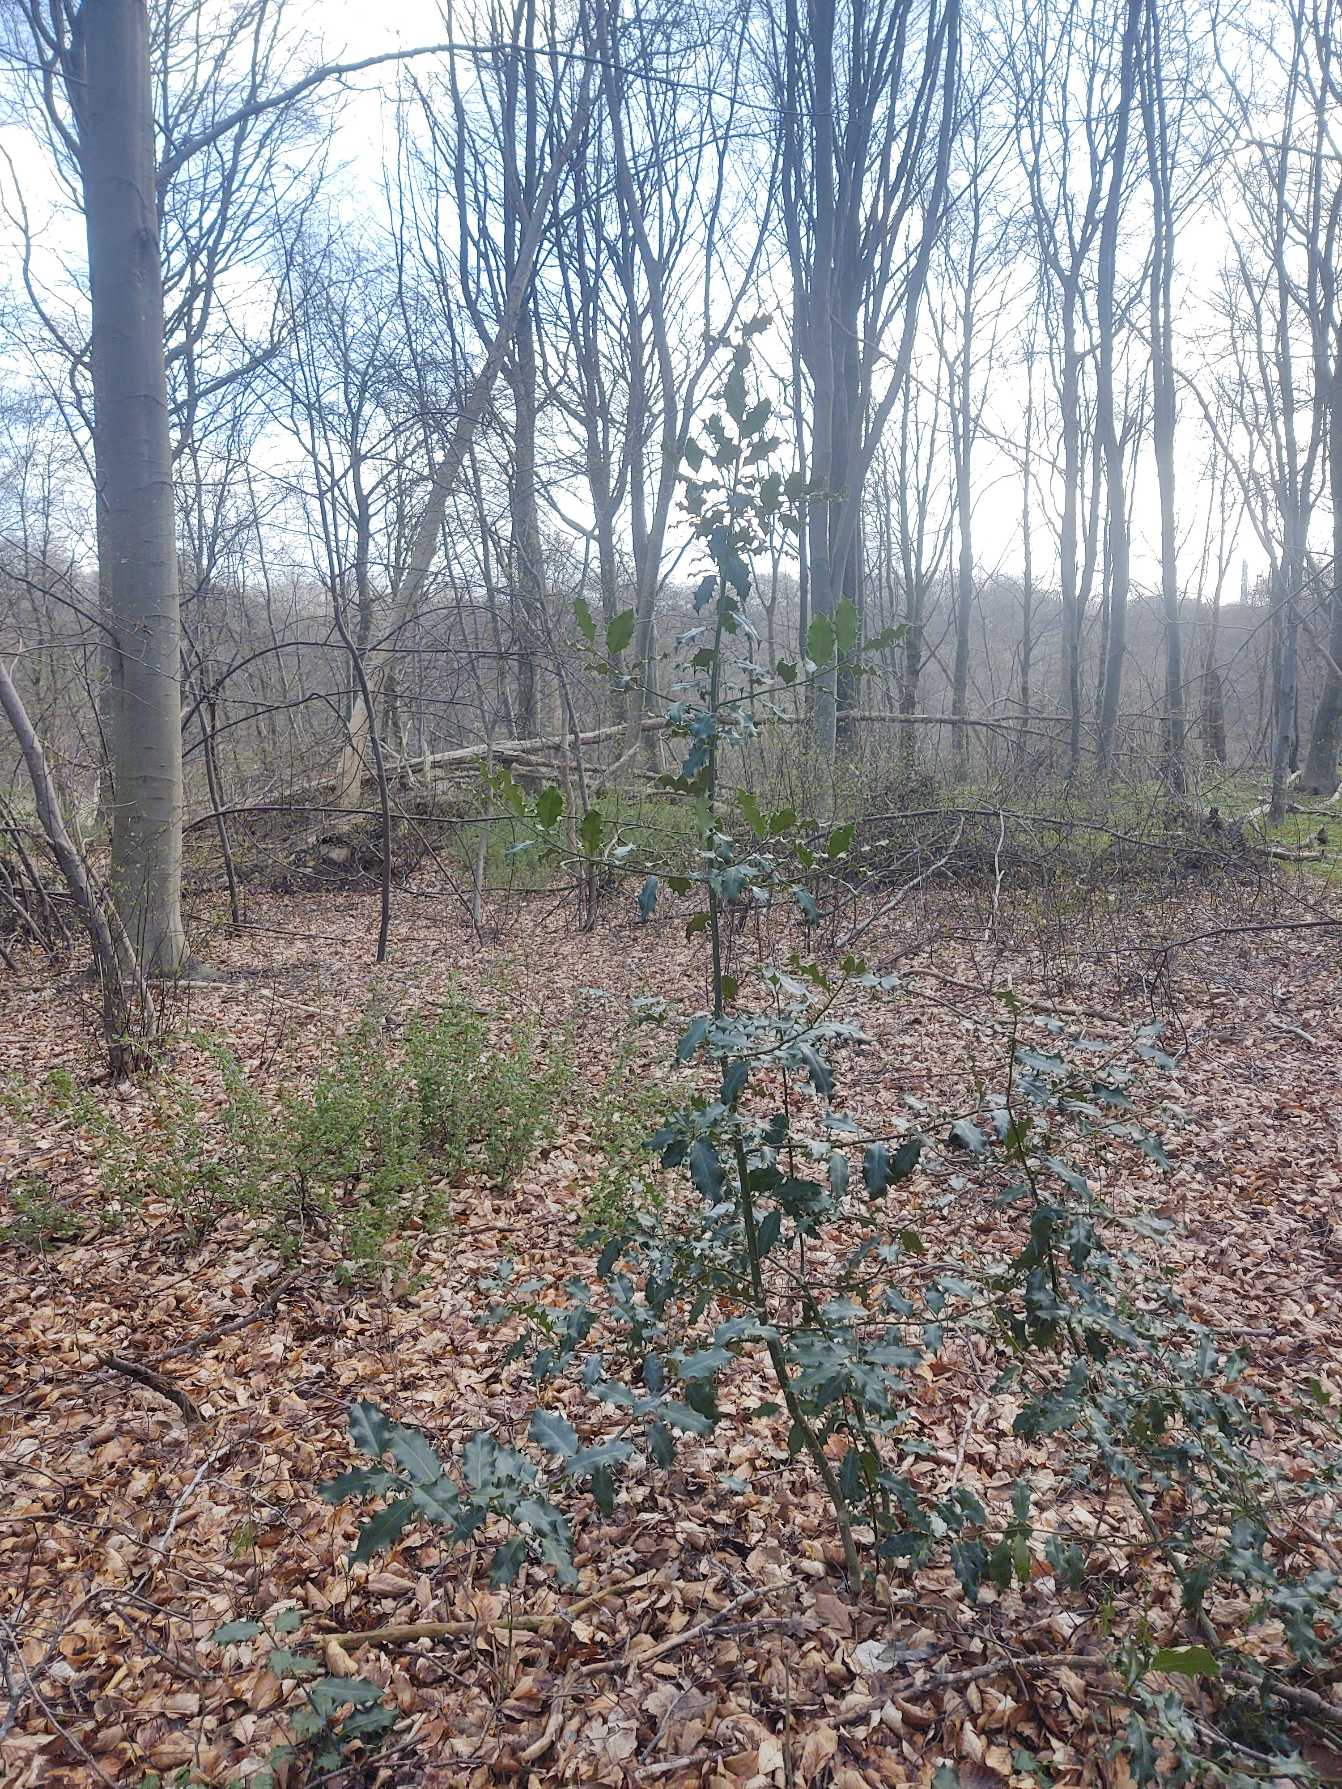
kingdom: Plantae
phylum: Tracheophyta
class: Magnoliopsida
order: Aquifoliales
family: Aquifoliaceae
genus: Ilex
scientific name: Ilex aquifolium
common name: Kristtorn
